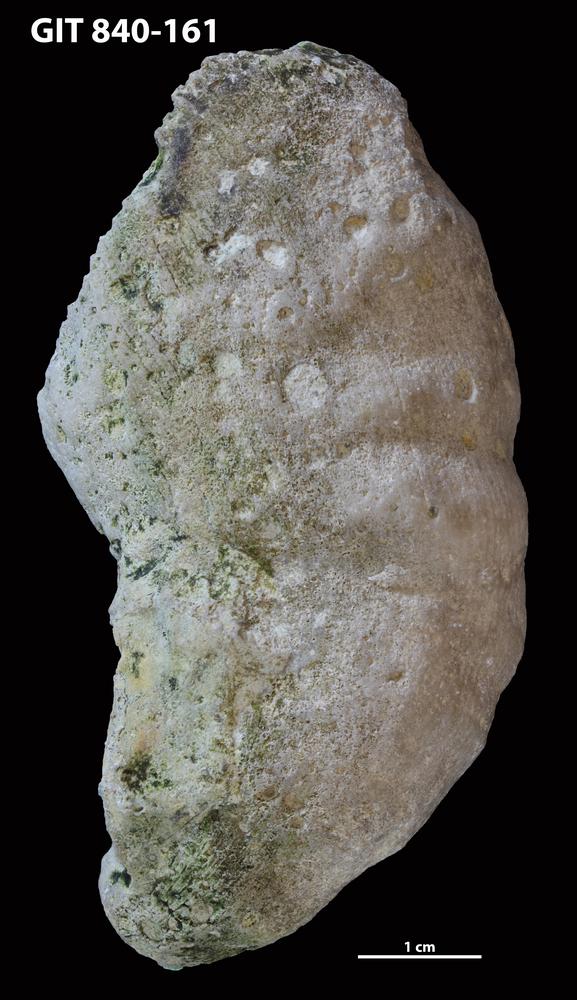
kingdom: Animalia
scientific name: Animalia
